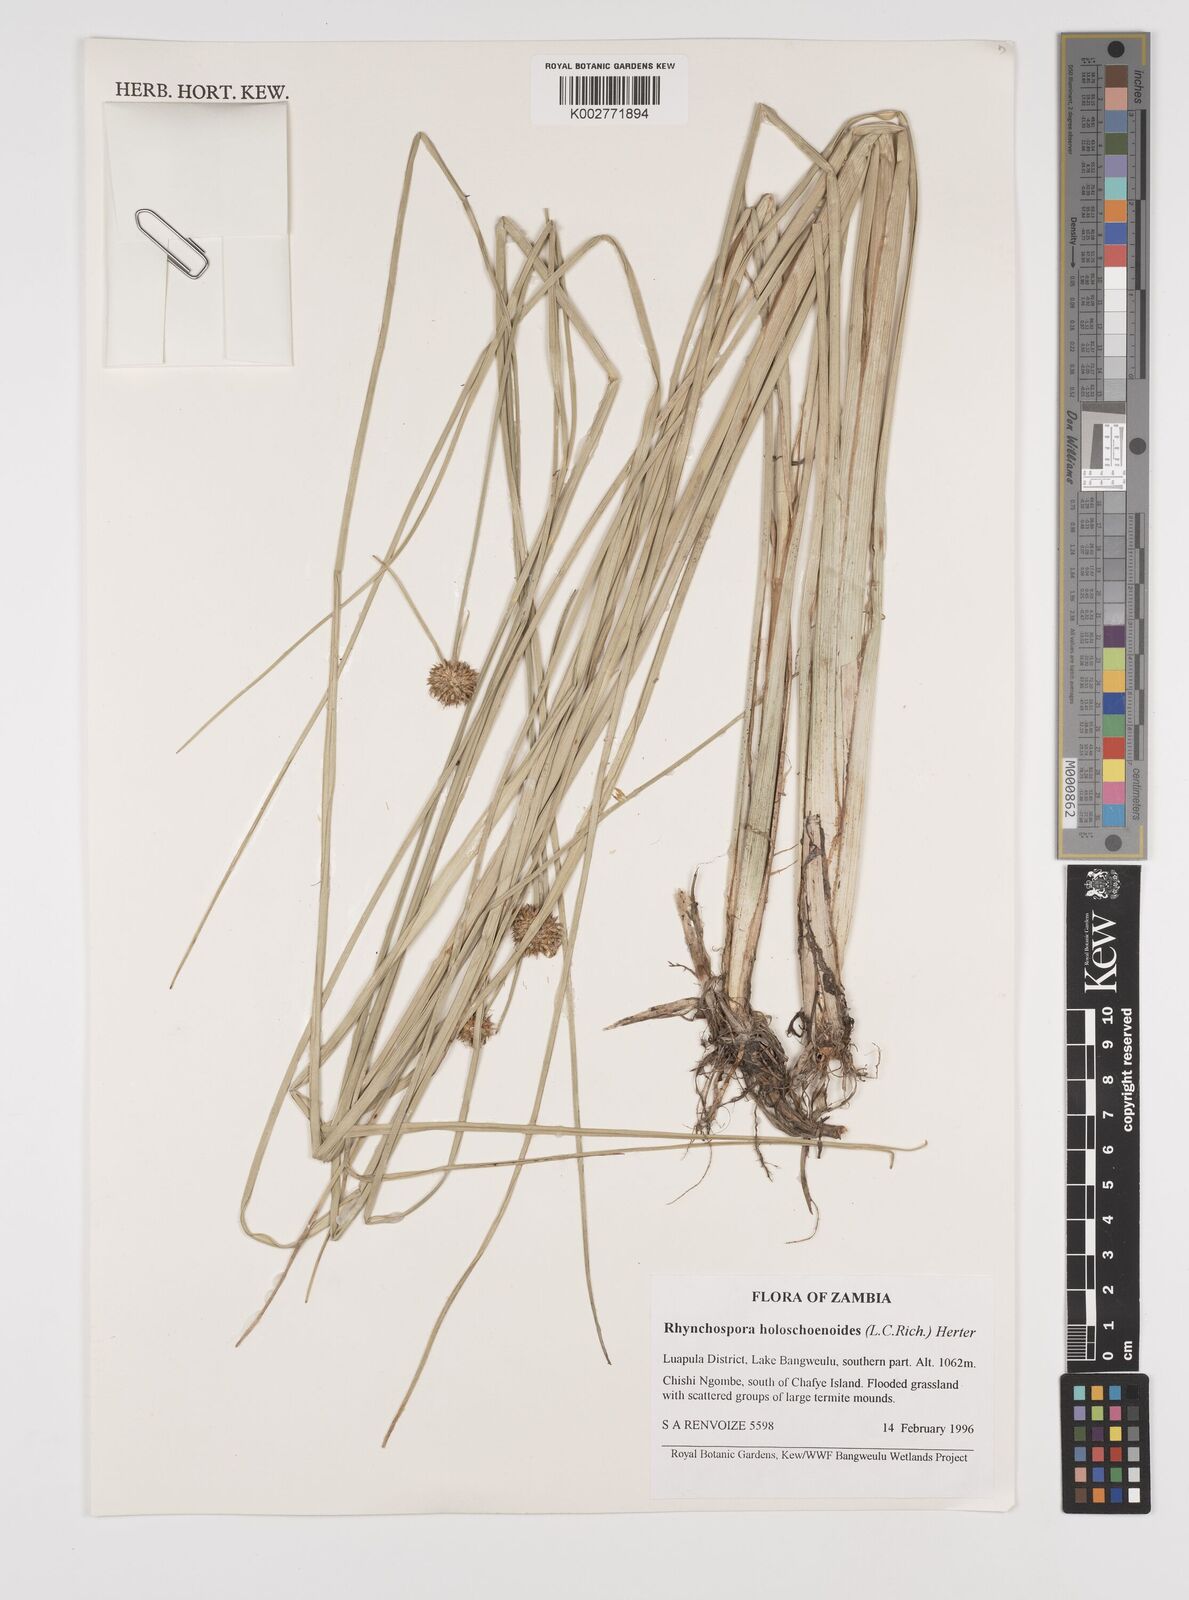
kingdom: Plantae
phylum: Tracheophyta
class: Liliopsida
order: Poales
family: Cyperaceae
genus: Rhynchospora
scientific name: Rhynchospora holoschoenoides
